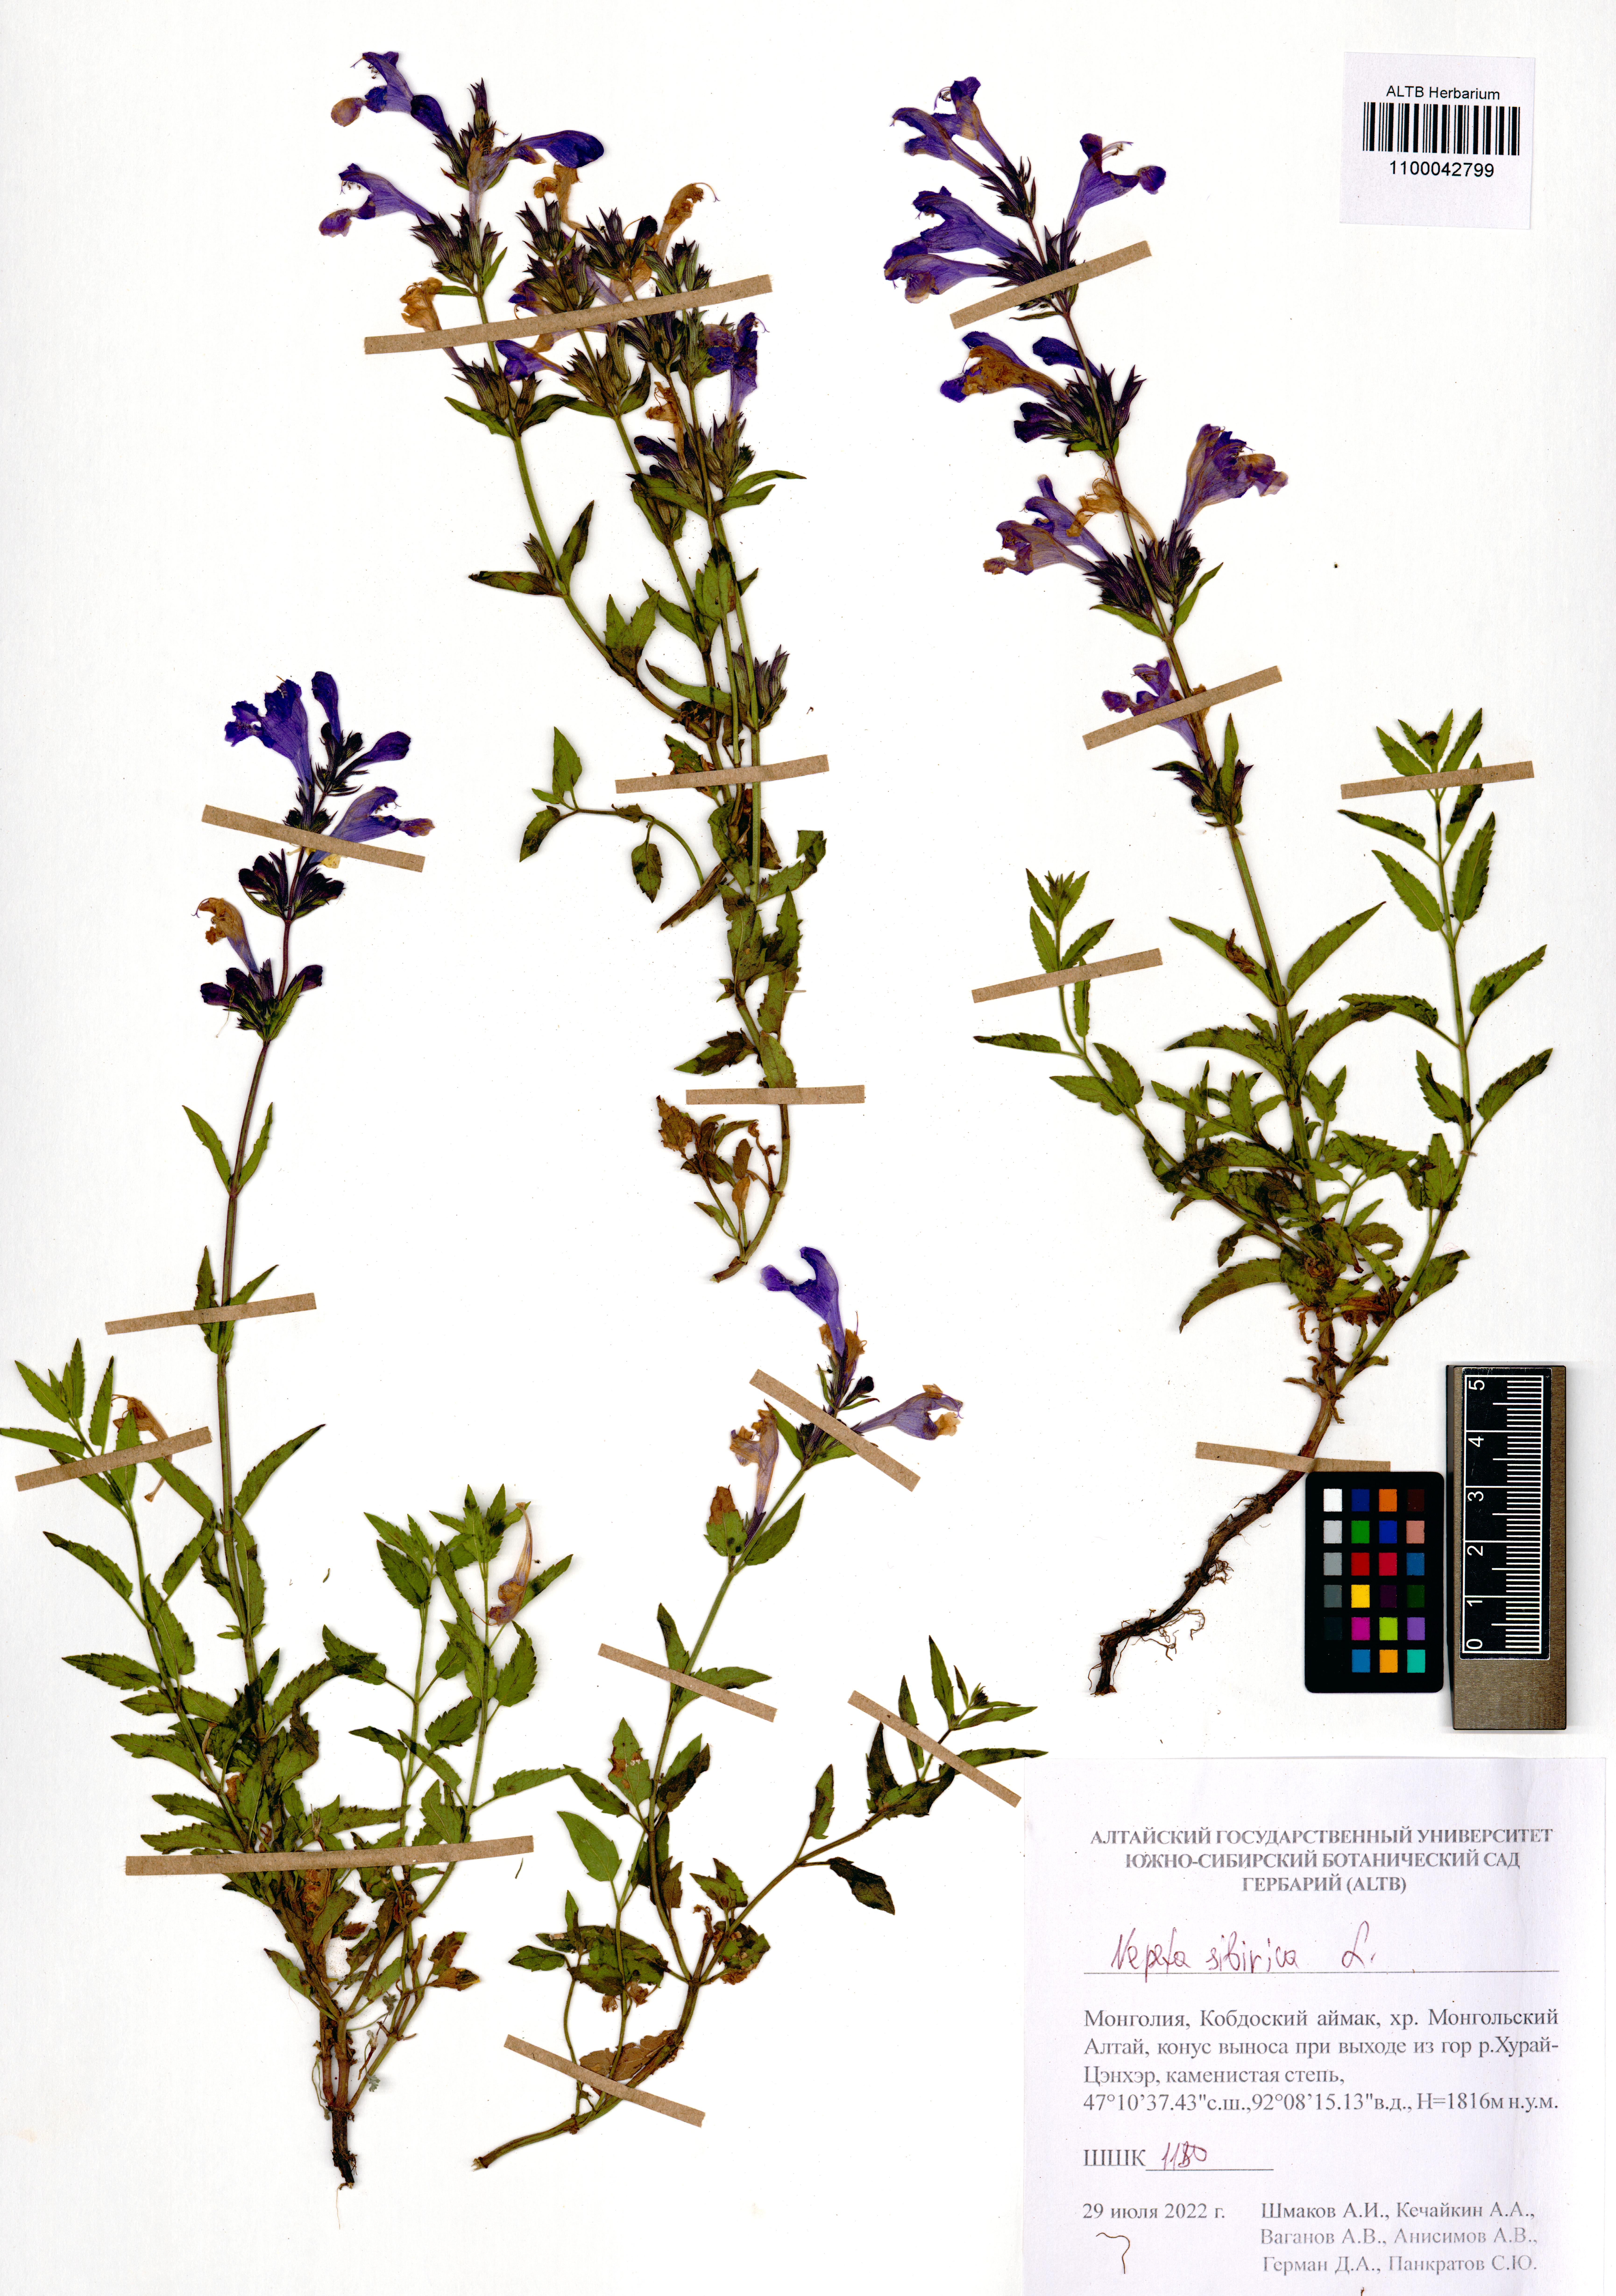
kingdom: Plantae
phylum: Tracheophyta
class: Magnoliopsida
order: Lamiales
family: Lamiaceae
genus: Nepeta
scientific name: Nepeta sibirica
